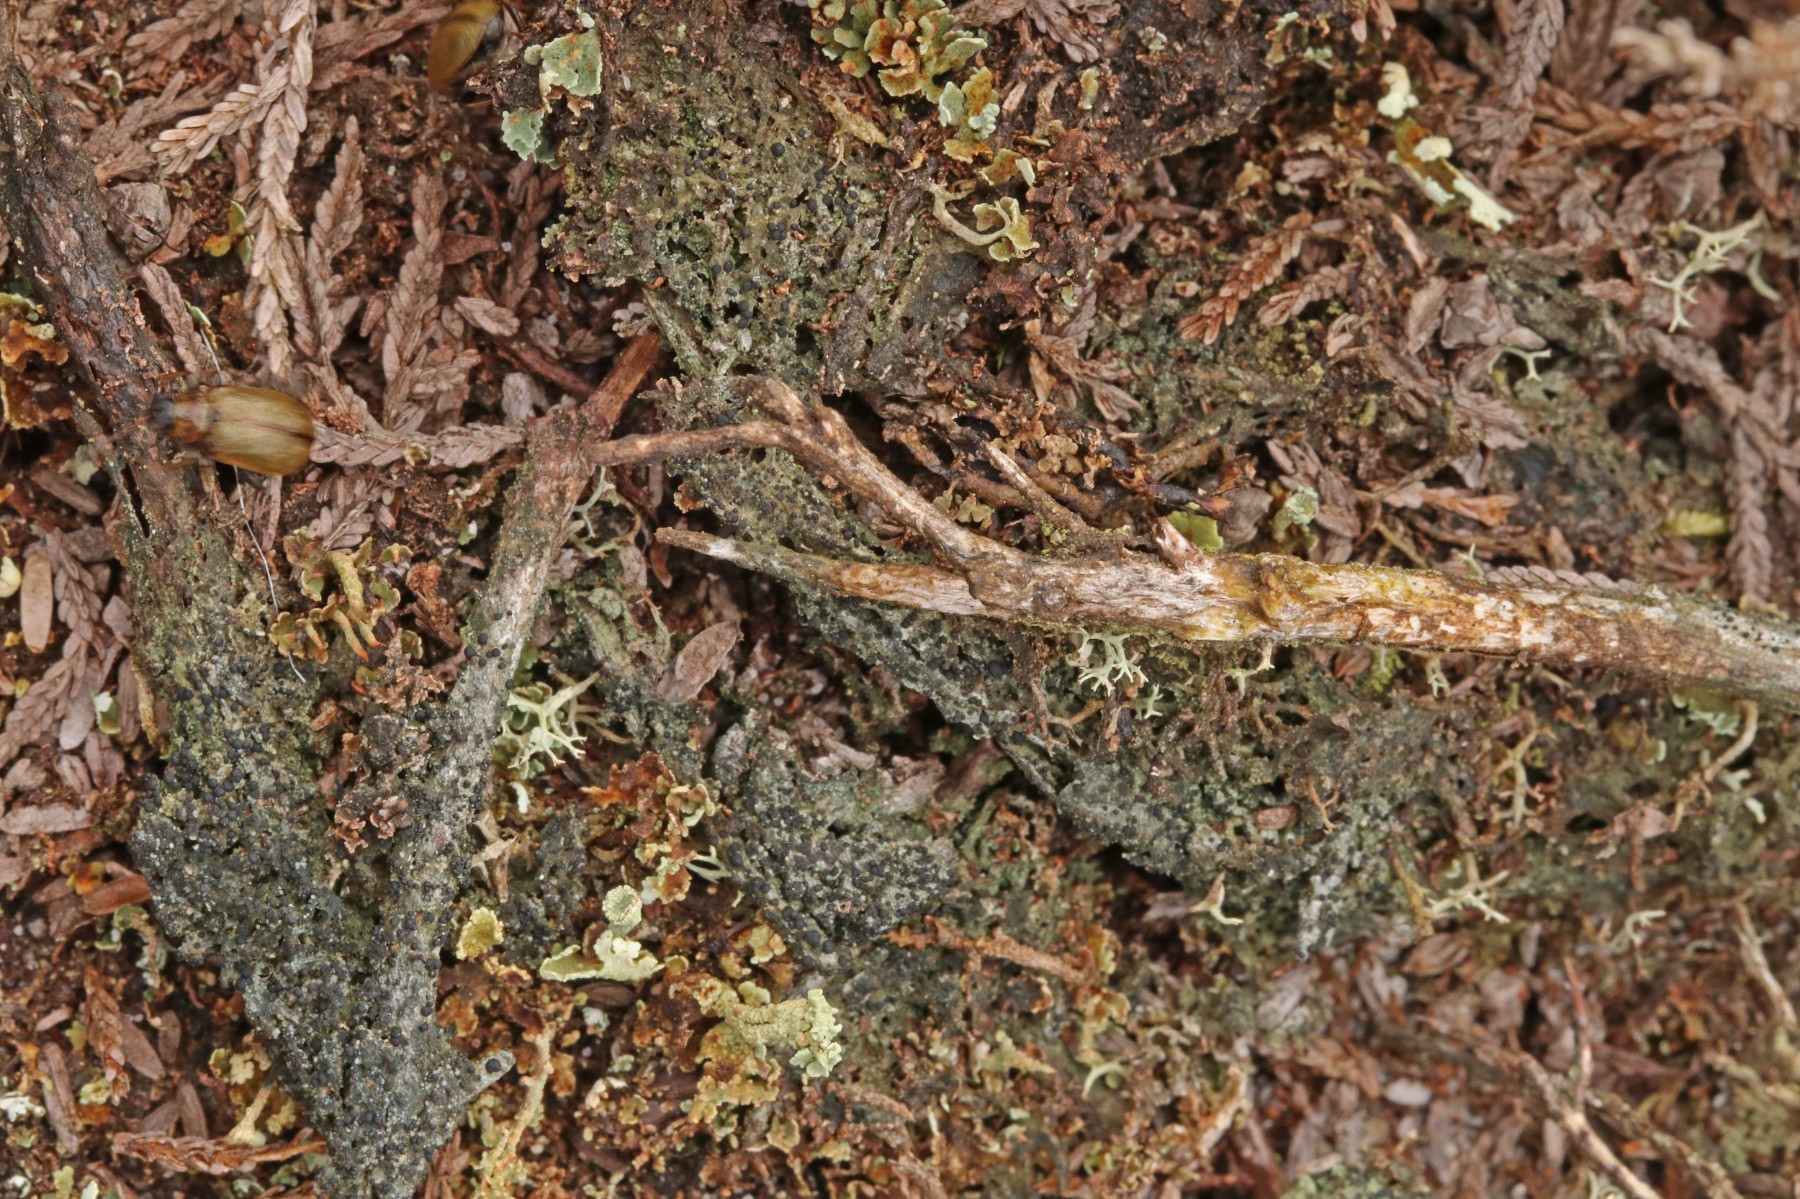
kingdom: Fungi
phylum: Ascomycota
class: Lecanoromycetes
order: Lecanorales
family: Byssolomataceae
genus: Micarea
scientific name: Micarea lignaria
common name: tørve-knaplav
